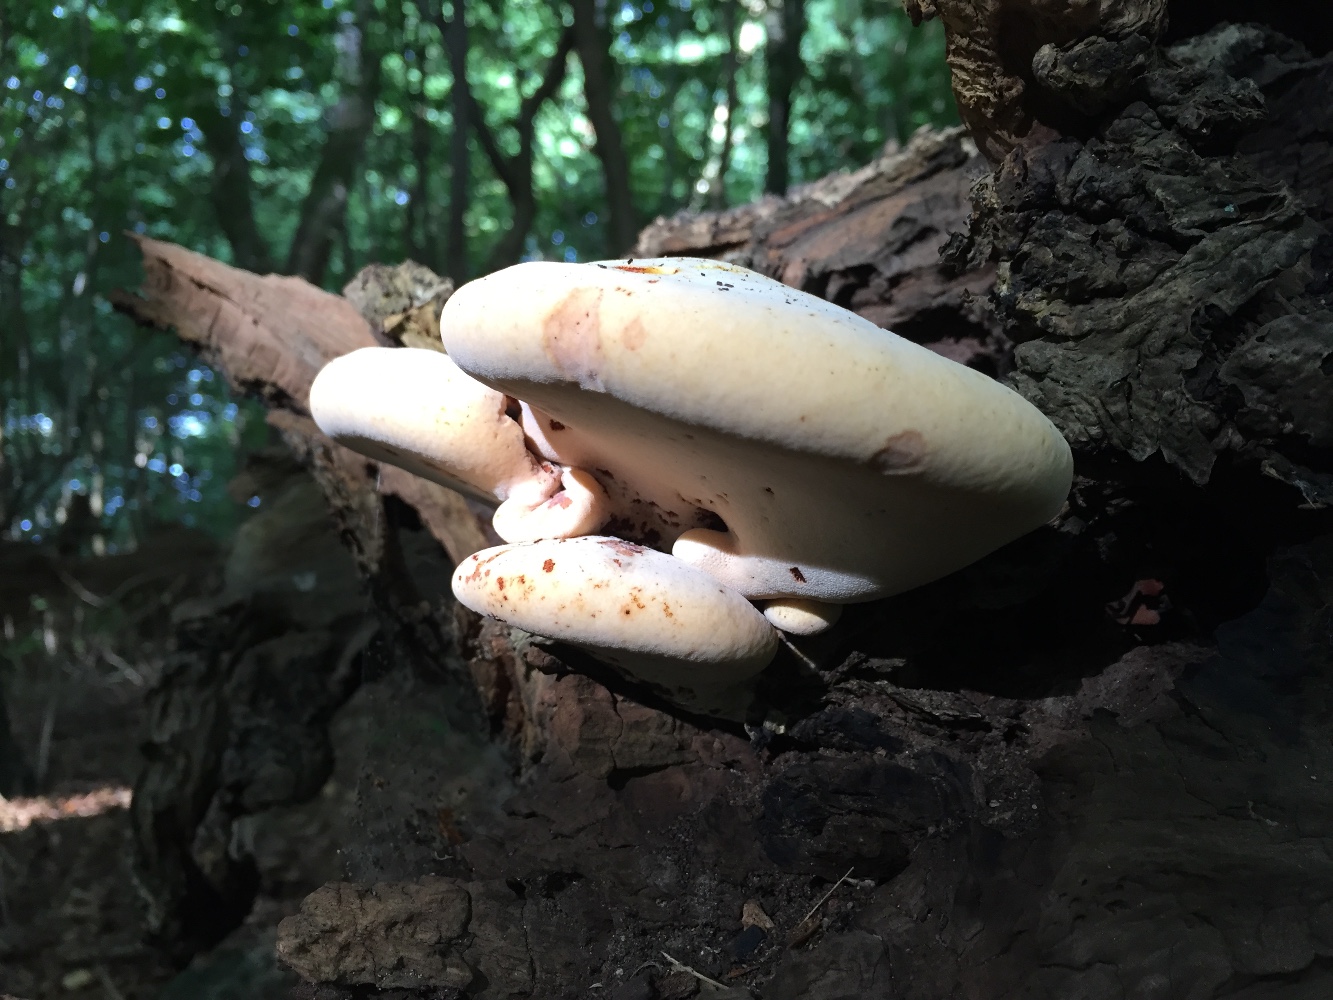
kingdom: Fungi
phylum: Basidiomycota
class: Agaricomycetes
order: Polyporales
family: Fomitopsidaceae
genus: Buglossoporus
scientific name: Buglossoporus quercinus
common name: egetunge
